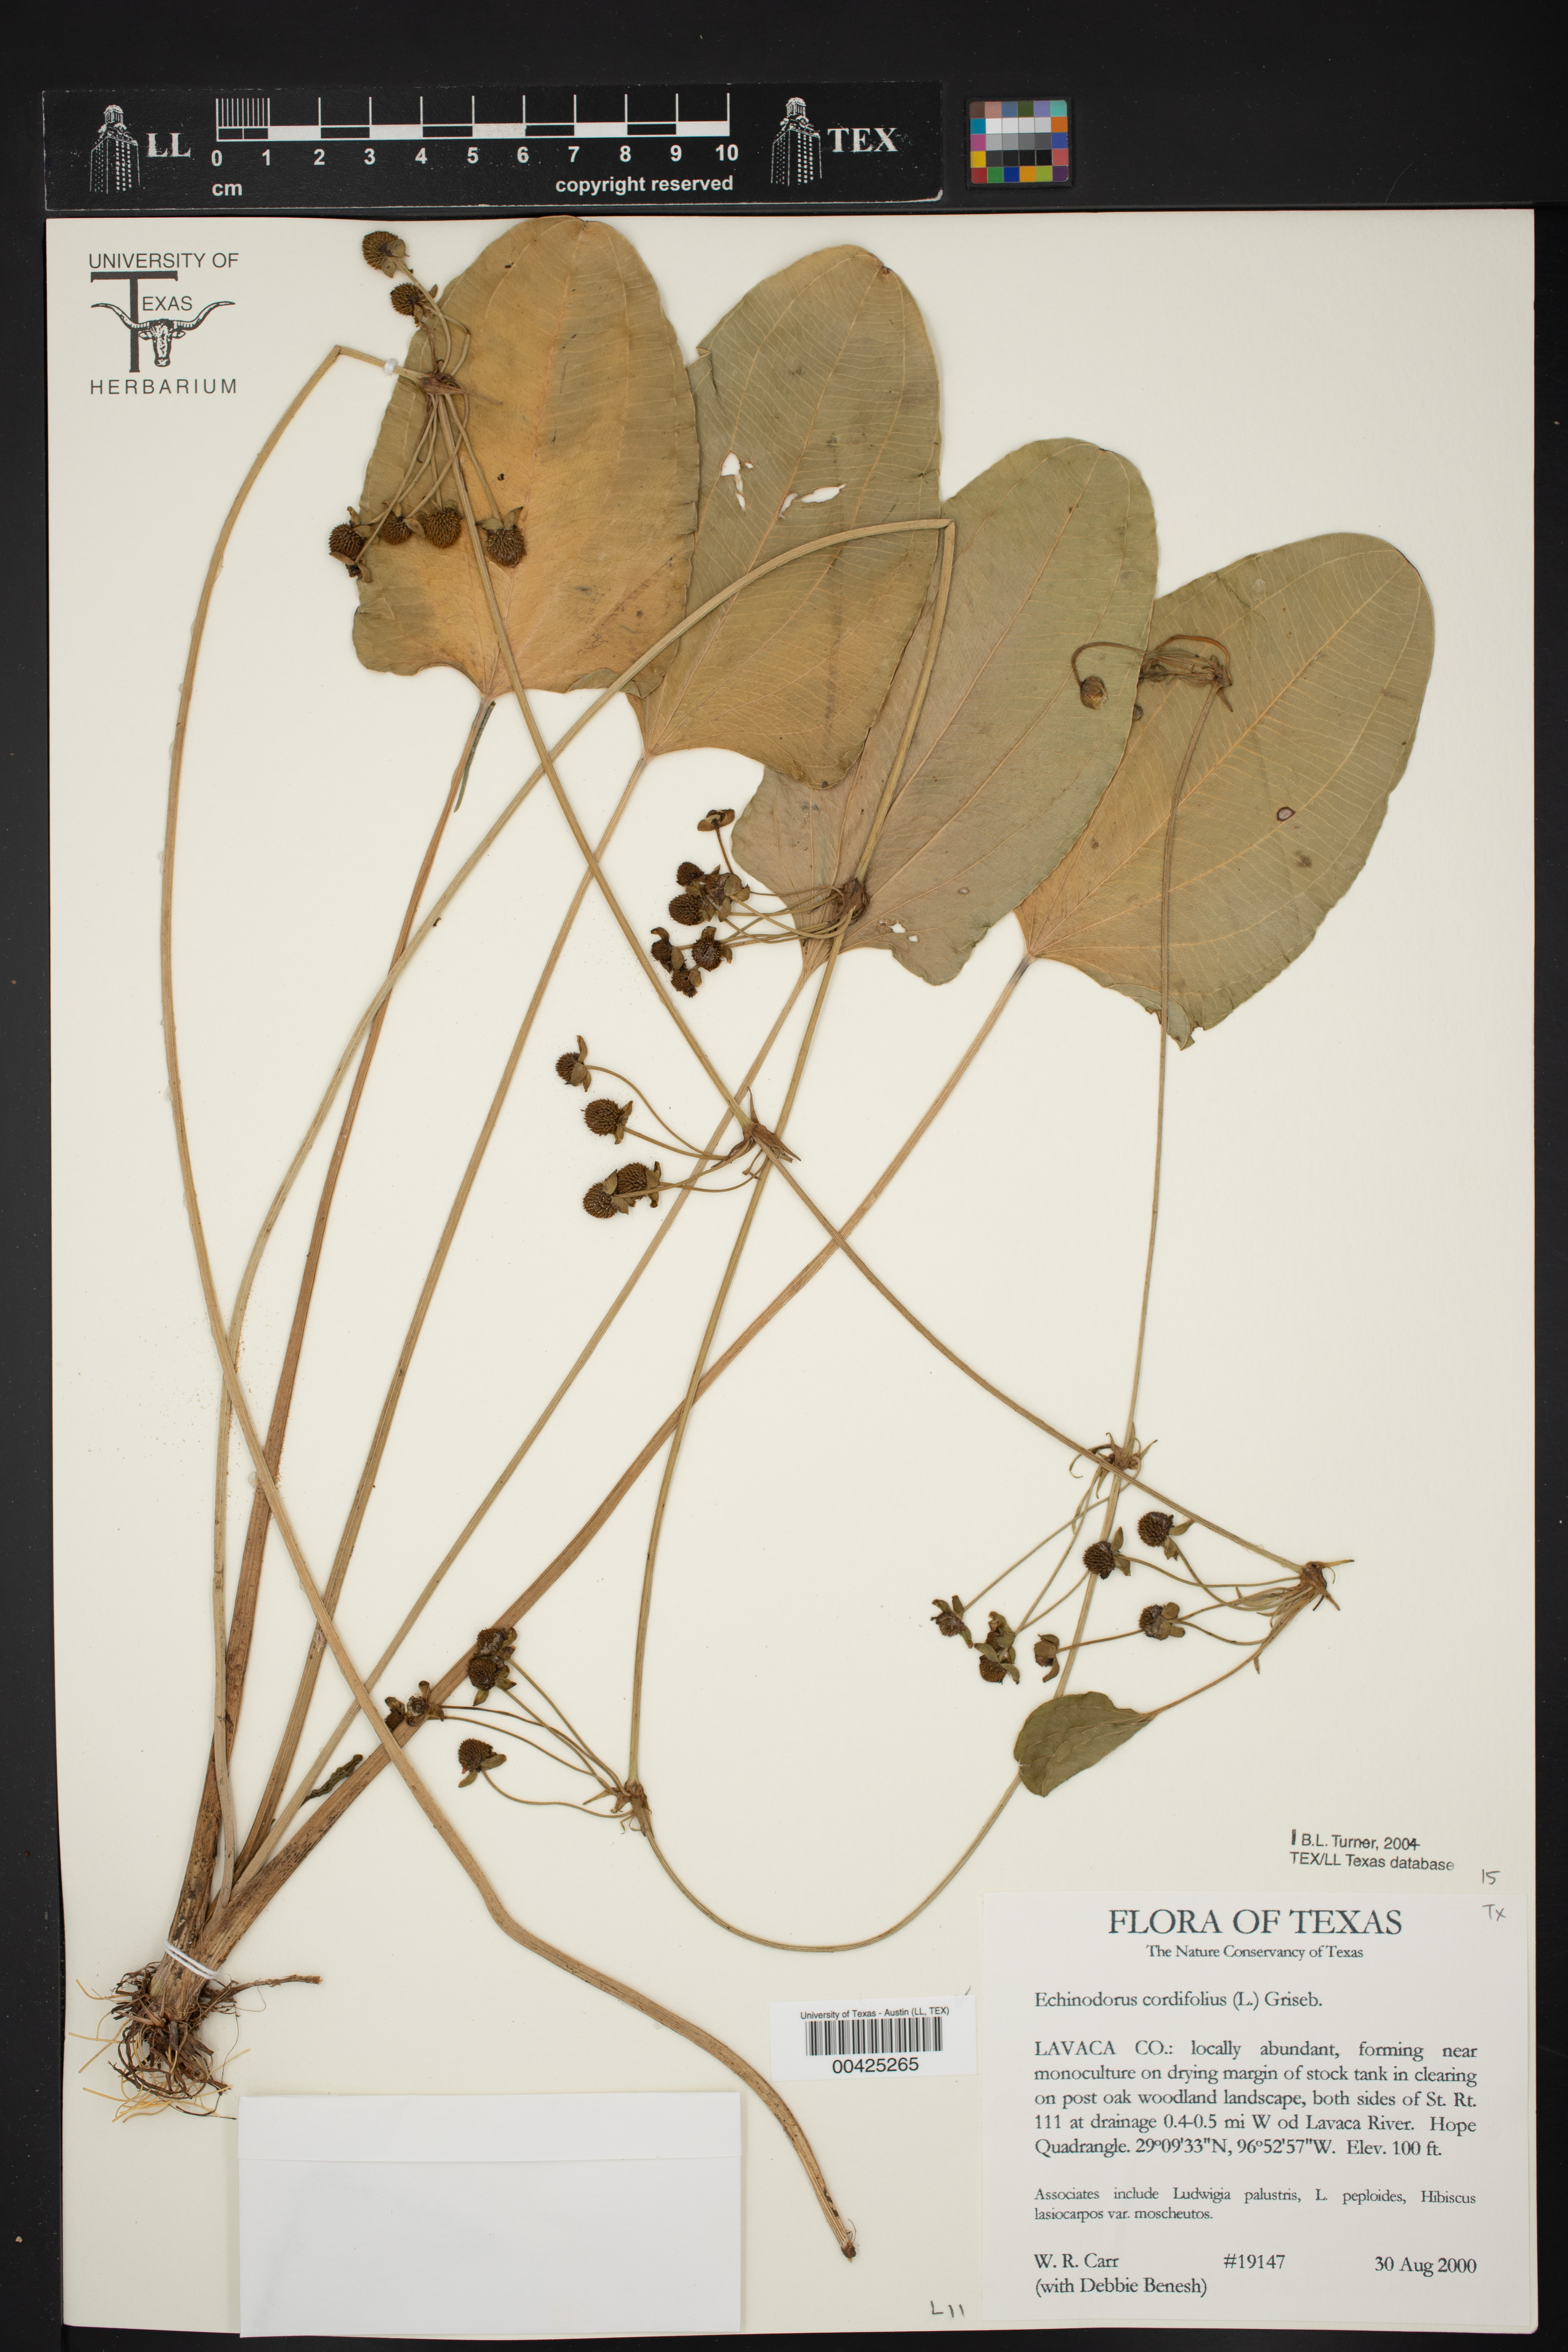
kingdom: Plantae
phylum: Tracheophyta
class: Liliopsida
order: Alismatales
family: Alismataceae
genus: Aquarius
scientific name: Aquarius cordifolius
